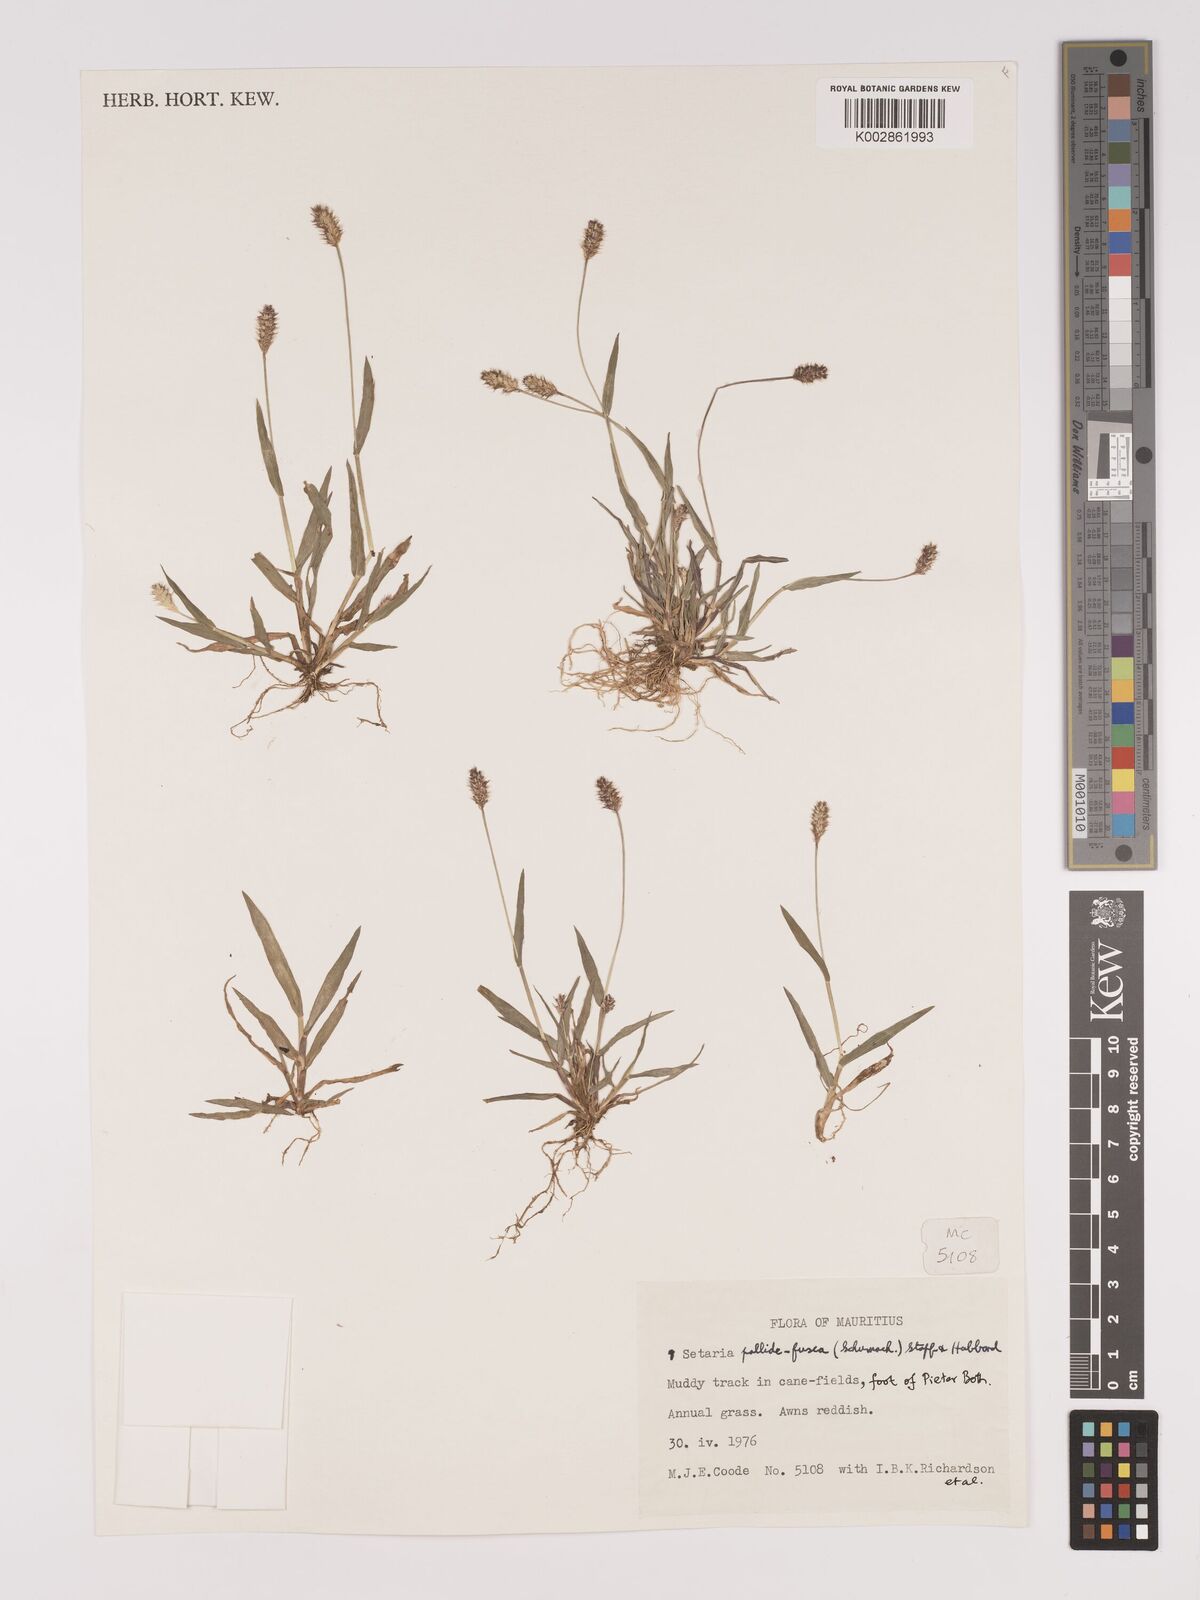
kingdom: Plantae
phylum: Tracheophyta
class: Liliopsida
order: Poales
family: Poaceae
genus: Setaria
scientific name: Setaria pumila
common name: Yellow bristle-grass
